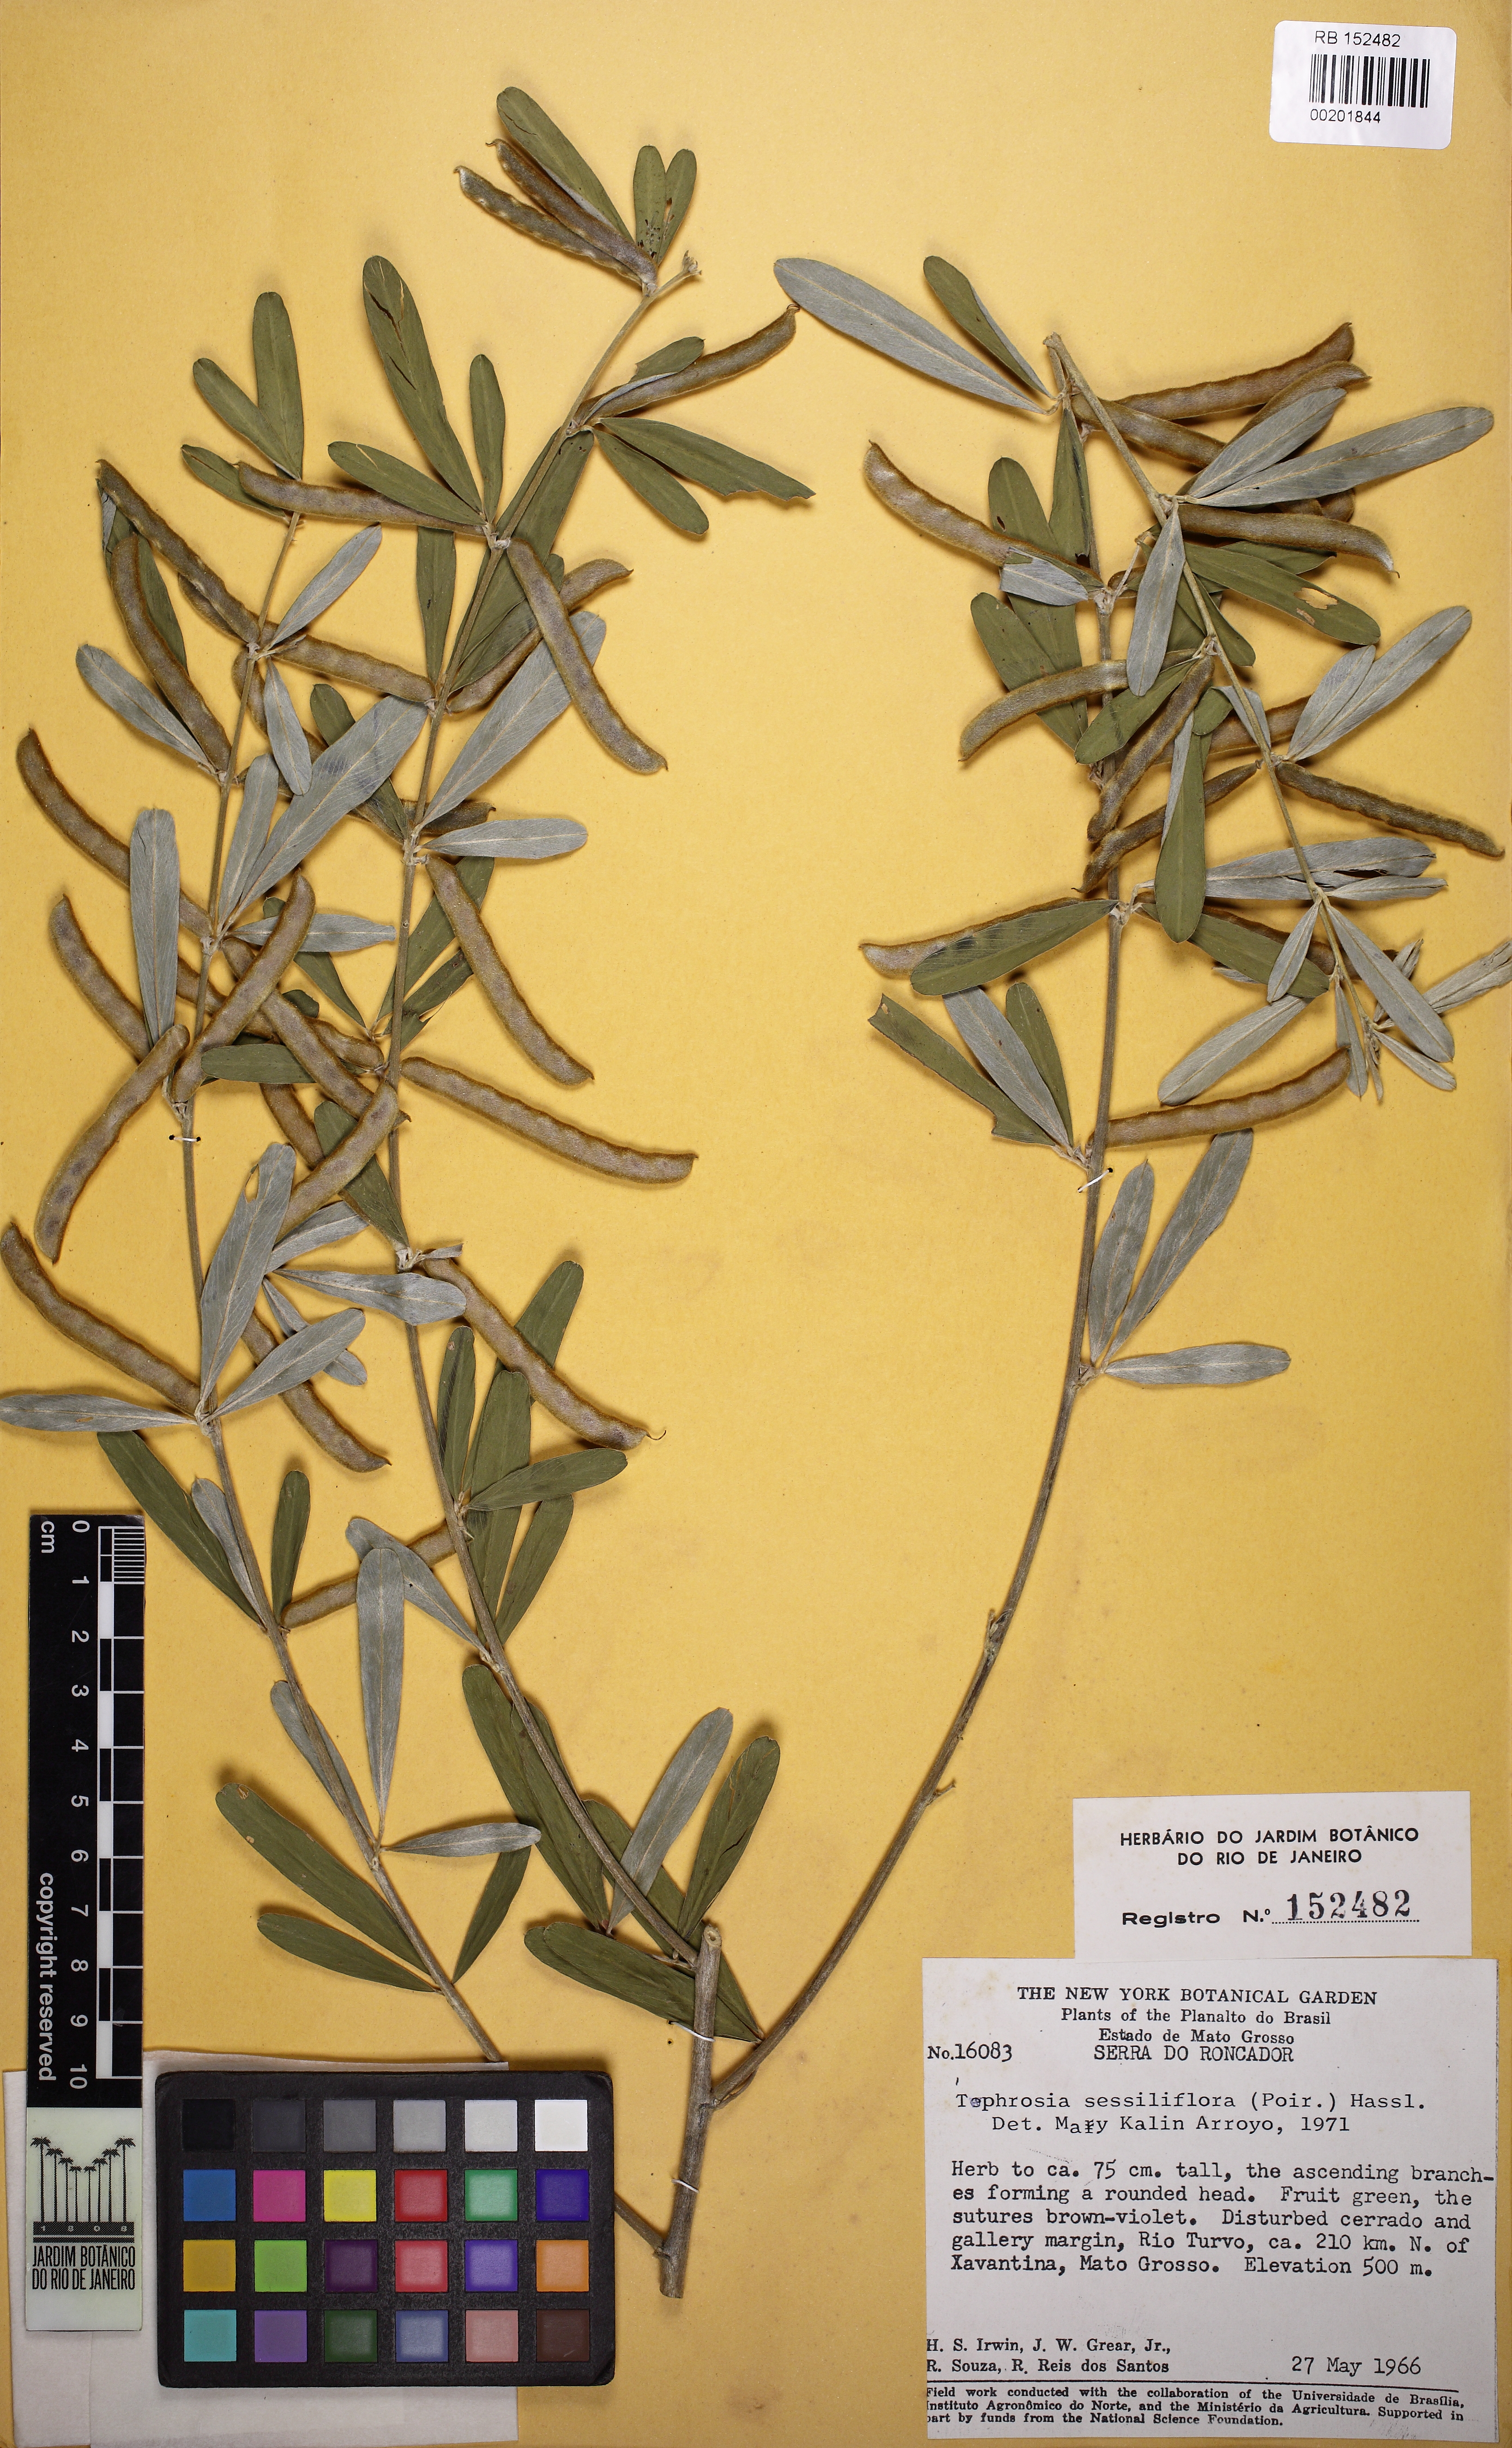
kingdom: Plantae
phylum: Tracheophyta
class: Magnoliopsida
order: Fabales
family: Fabaceae
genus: Tephrosia
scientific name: Tephrosia sessiliflora
